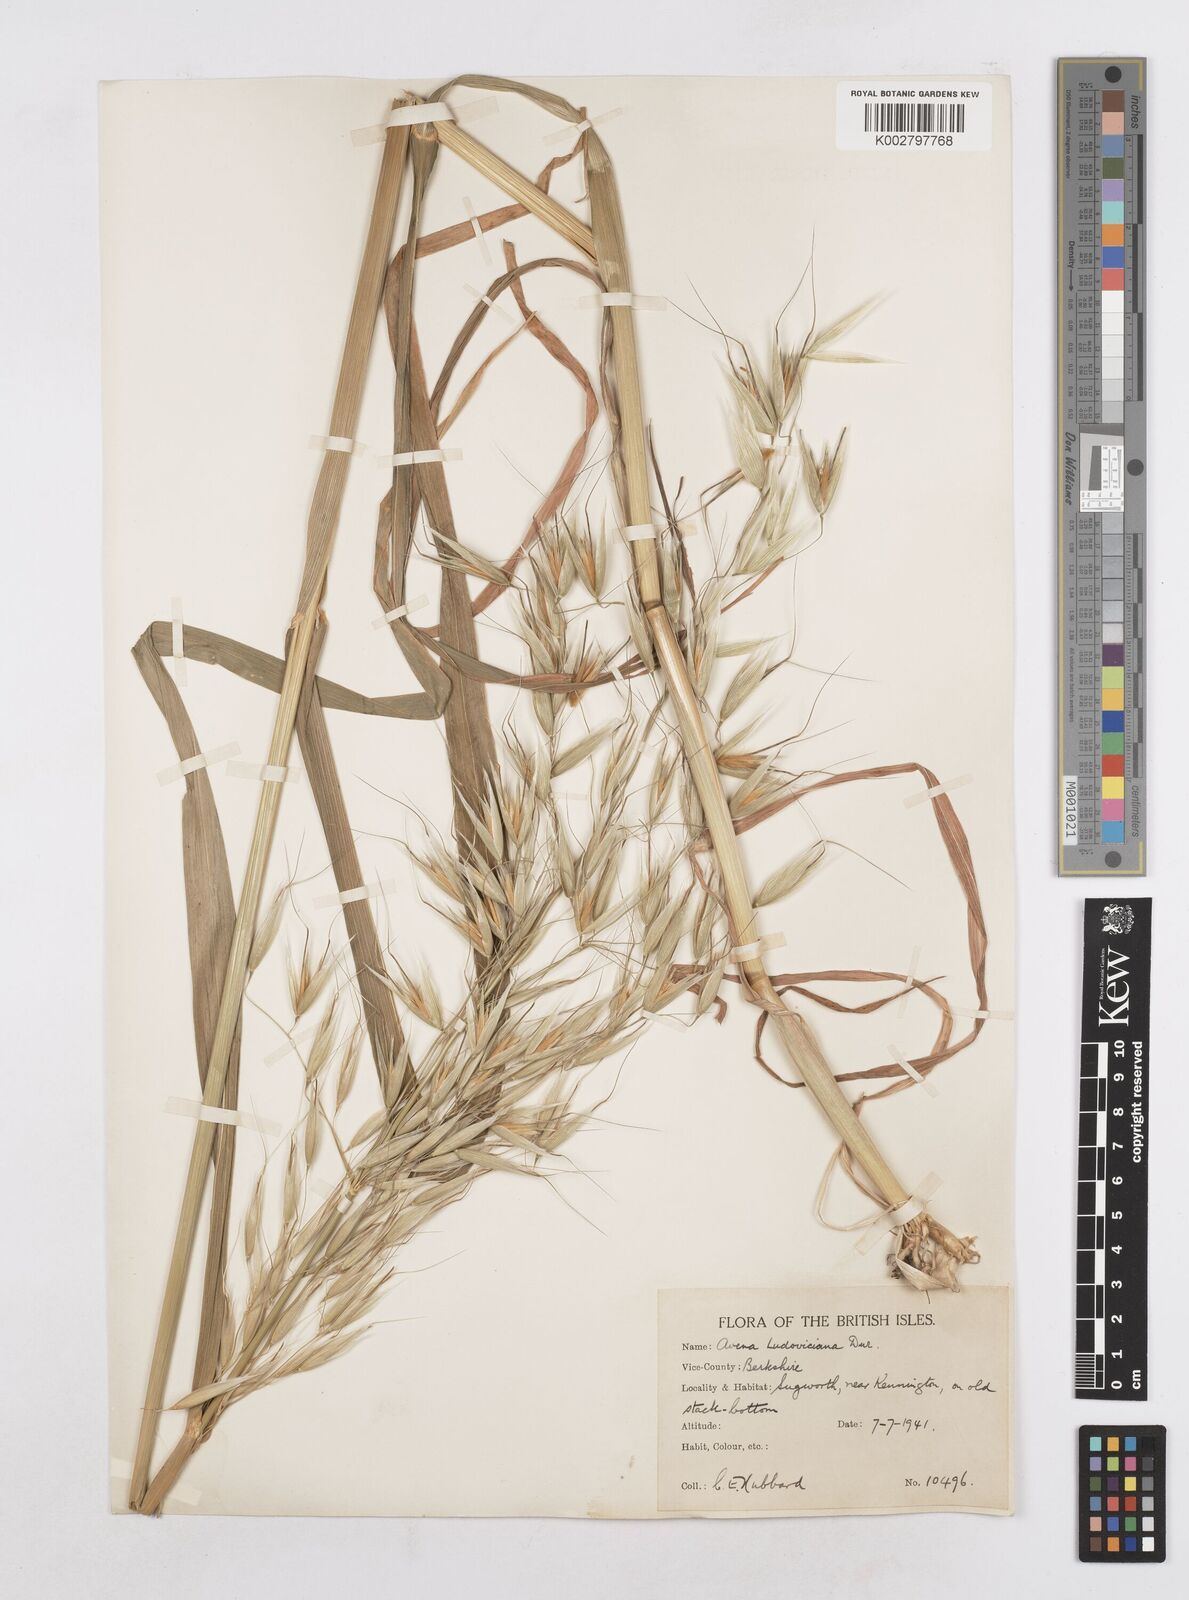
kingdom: Plantae
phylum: Tracheophyta
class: Liliopsida
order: Poales
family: Poaceae
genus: Avena
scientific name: Avena sterilis
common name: Animated oat
